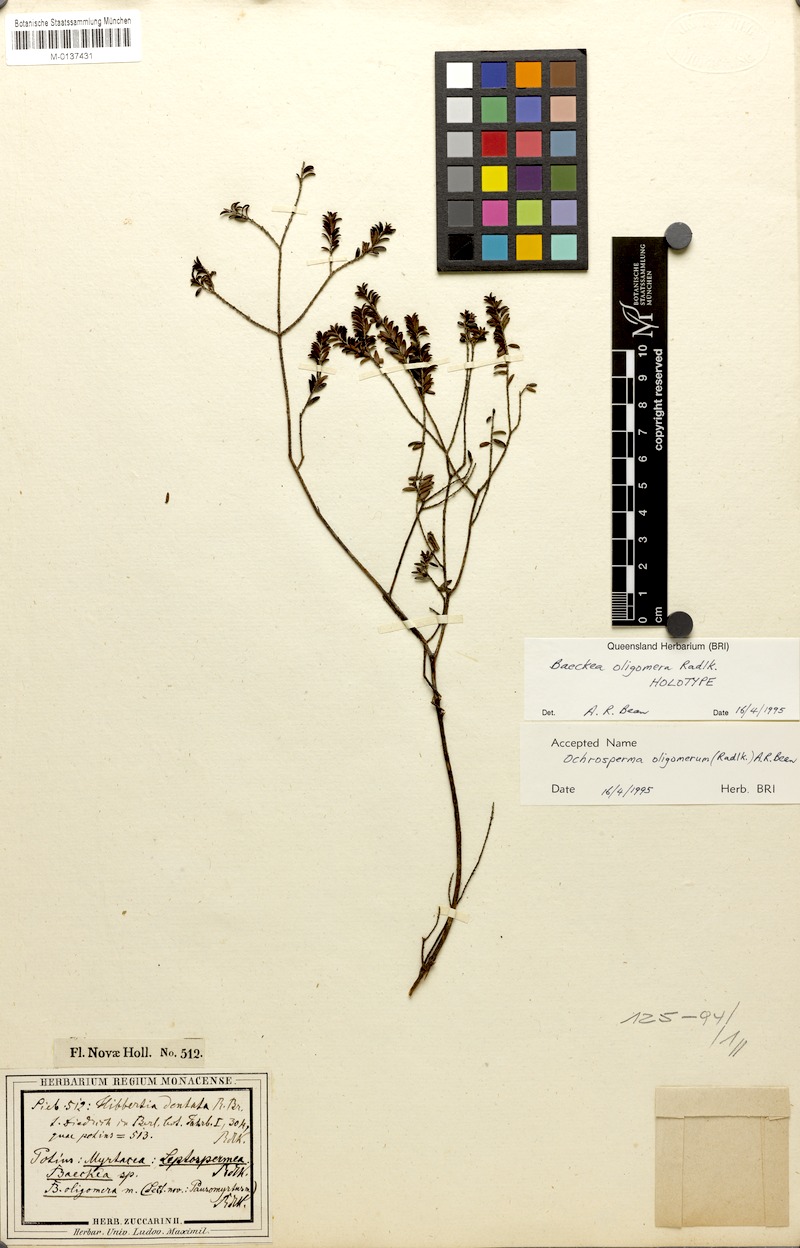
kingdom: Plantae
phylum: Tracheophyta
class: Magnoliopsida
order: Myrtales
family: Myrtaceae
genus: Ochrosperma
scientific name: Ochrosperma oligomerum
